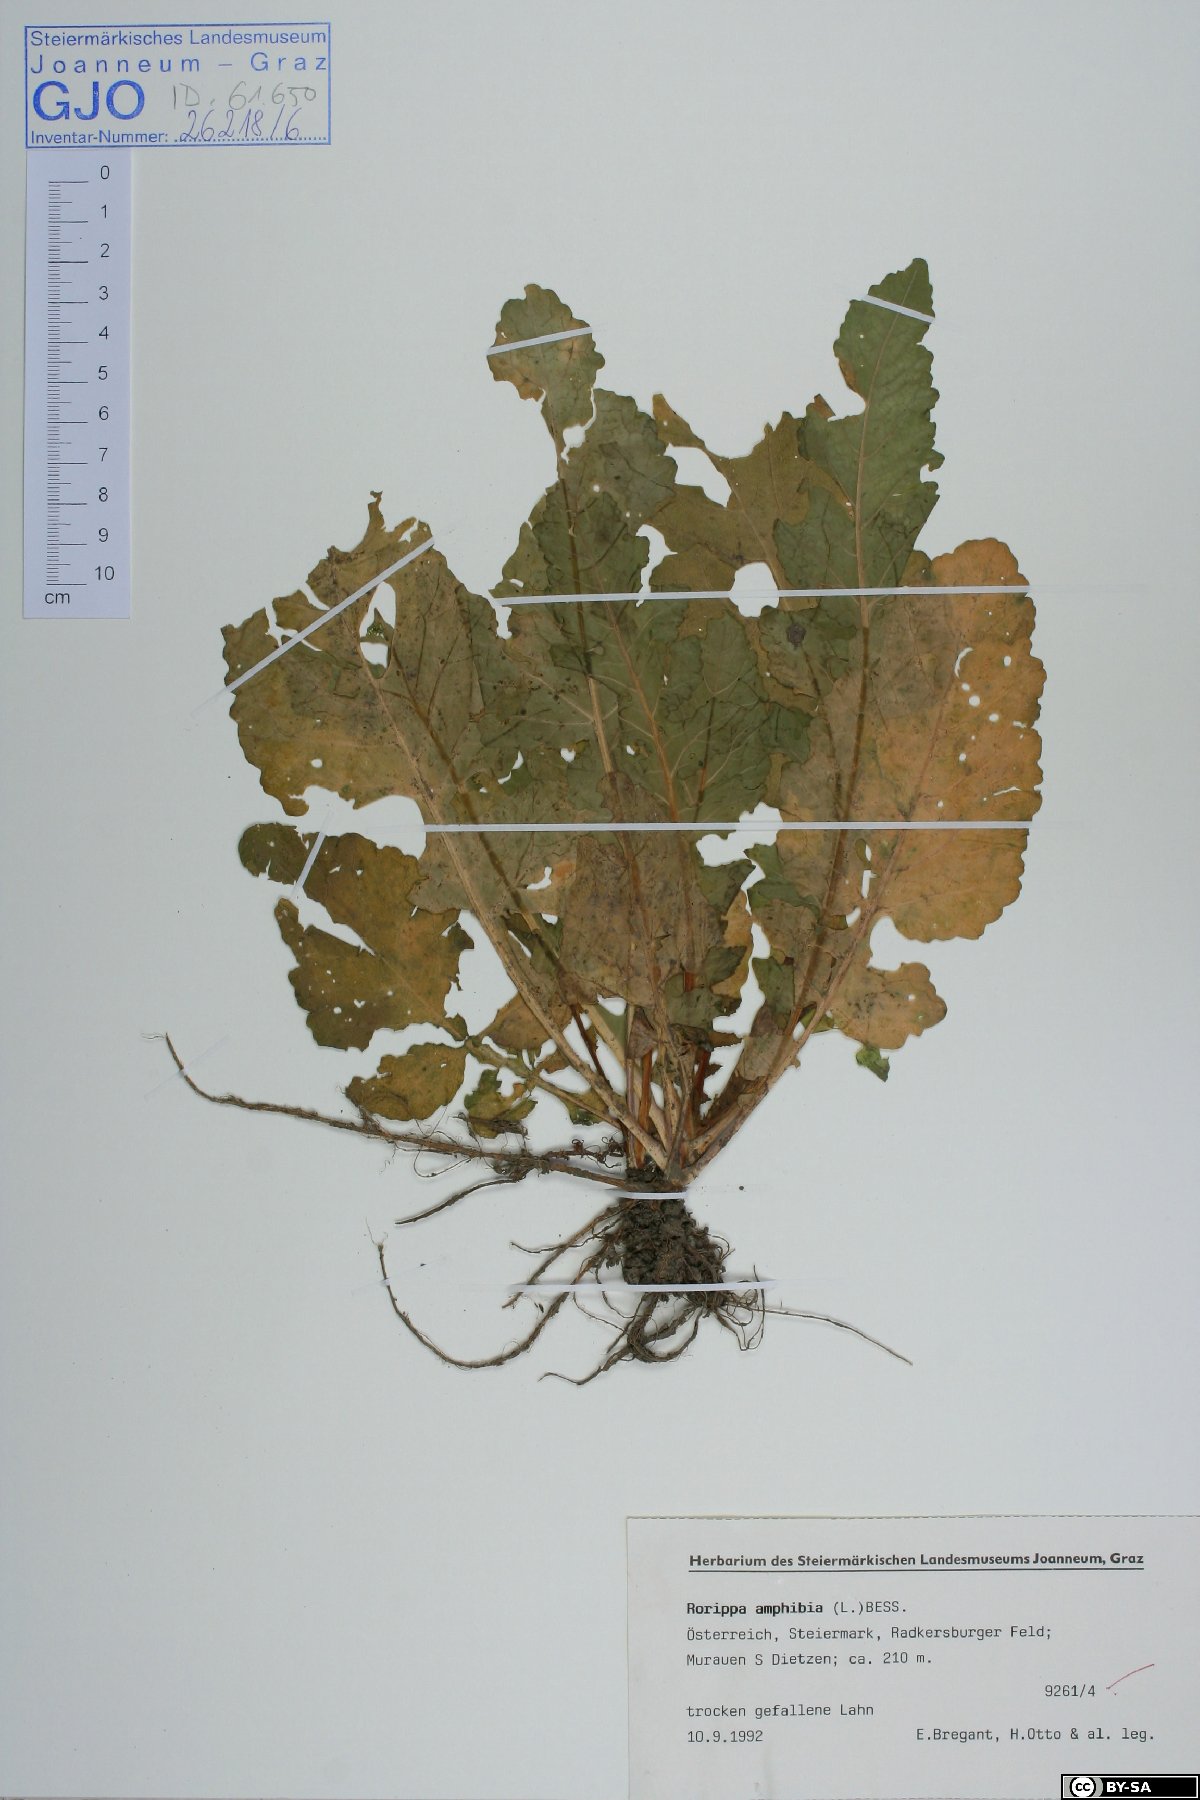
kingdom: Plantae
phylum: Tracheophyta
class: Magnoliopsida
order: Brassicales
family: Brassicaceae
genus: Rorippa
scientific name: Rorippa amphibia
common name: Great yellow-cress
